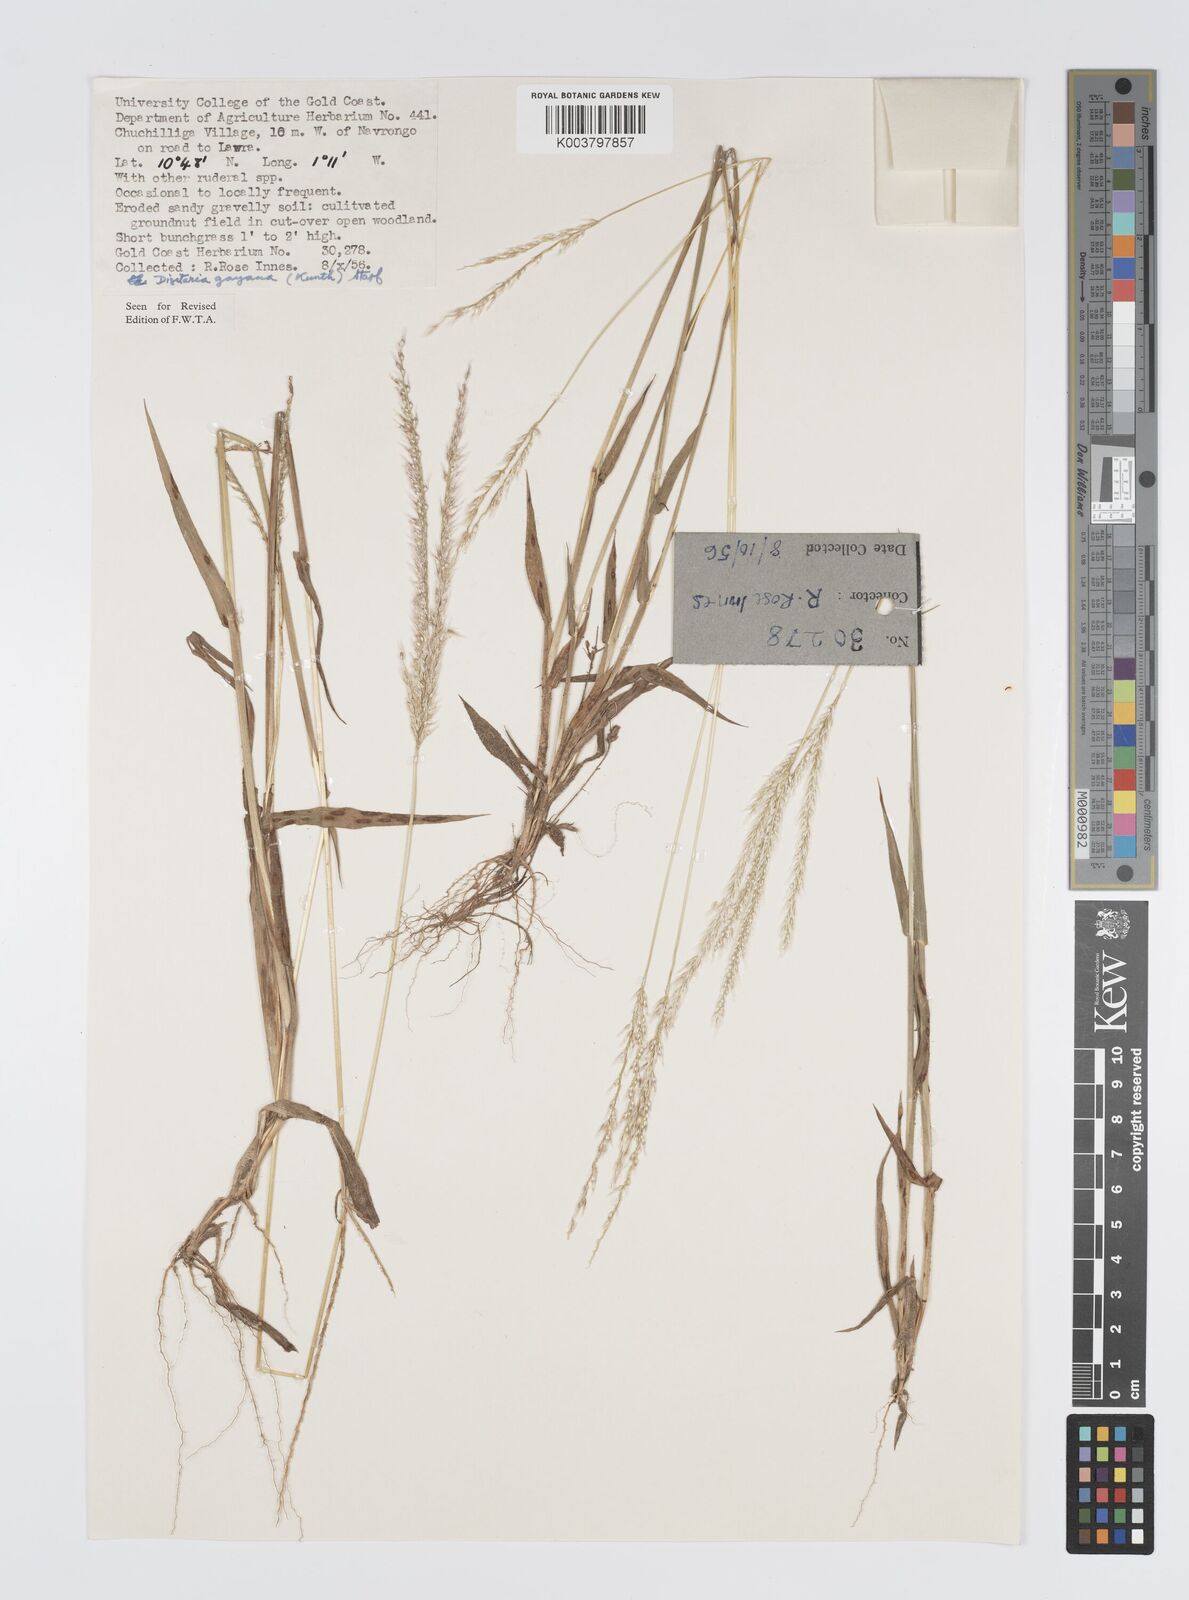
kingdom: Plantae
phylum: Tracheophyta
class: Liliopsida
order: Poales
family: Poaceae
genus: Digitaria
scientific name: Digitaria gayana
